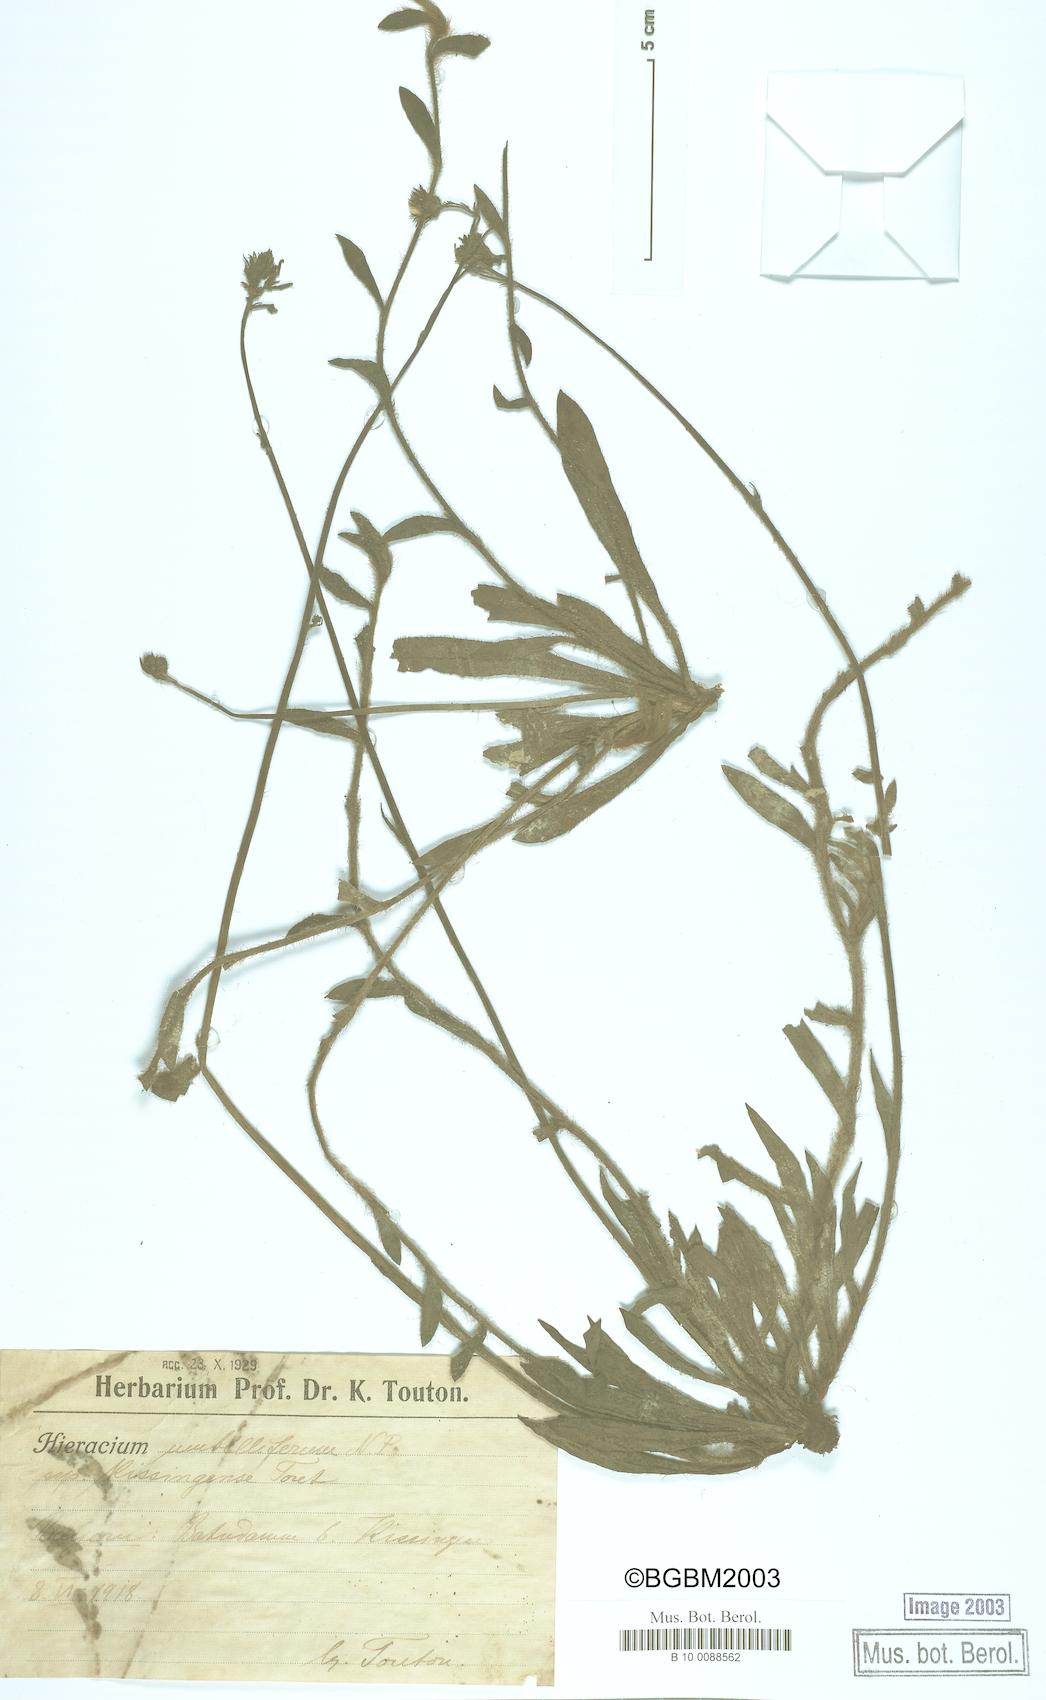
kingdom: Plantae
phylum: Tracheophyta
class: Magnoliopsida
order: Asterales
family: Asteraceae
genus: Pilosella
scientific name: Pilosella densiflora
